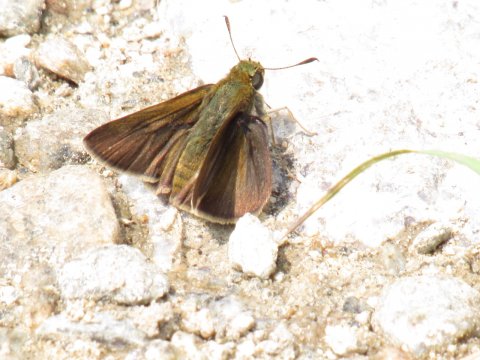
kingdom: Animalia
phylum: Arthropoda
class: Insecta
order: Lepidoptera
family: Hesperiidae
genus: Euphyes
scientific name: Euphyes vestris
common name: Dun Skipper
